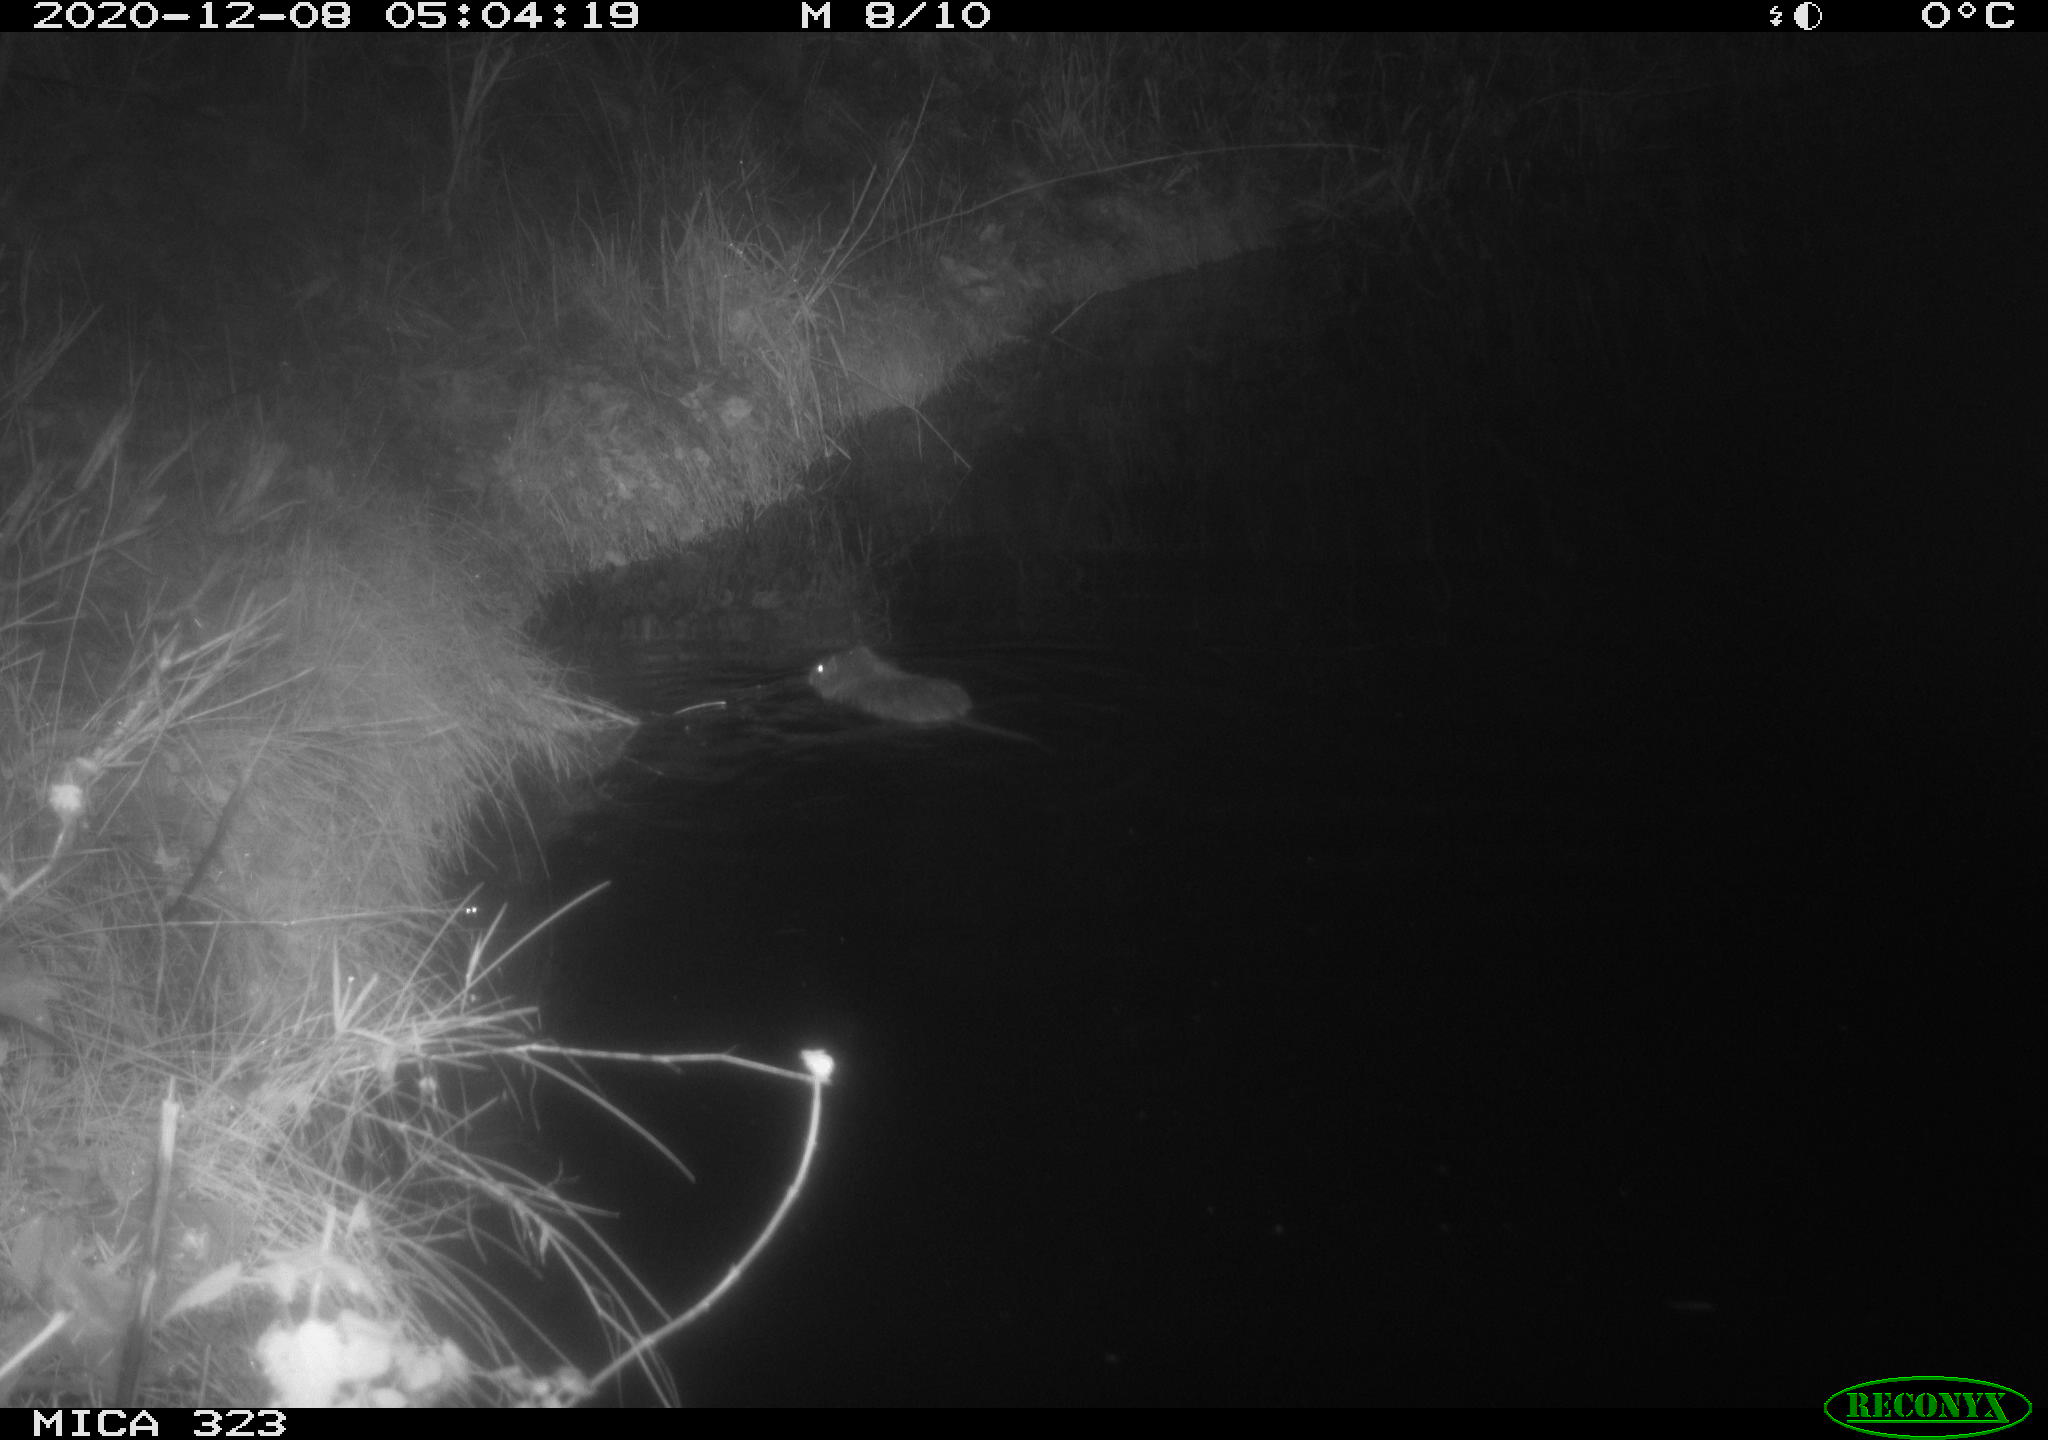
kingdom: Animalia
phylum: Chordata
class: Mammalia
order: Rodentia
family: Myocastoridae
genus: Myocastor
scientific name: Myocastor coypus
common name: Coypu
